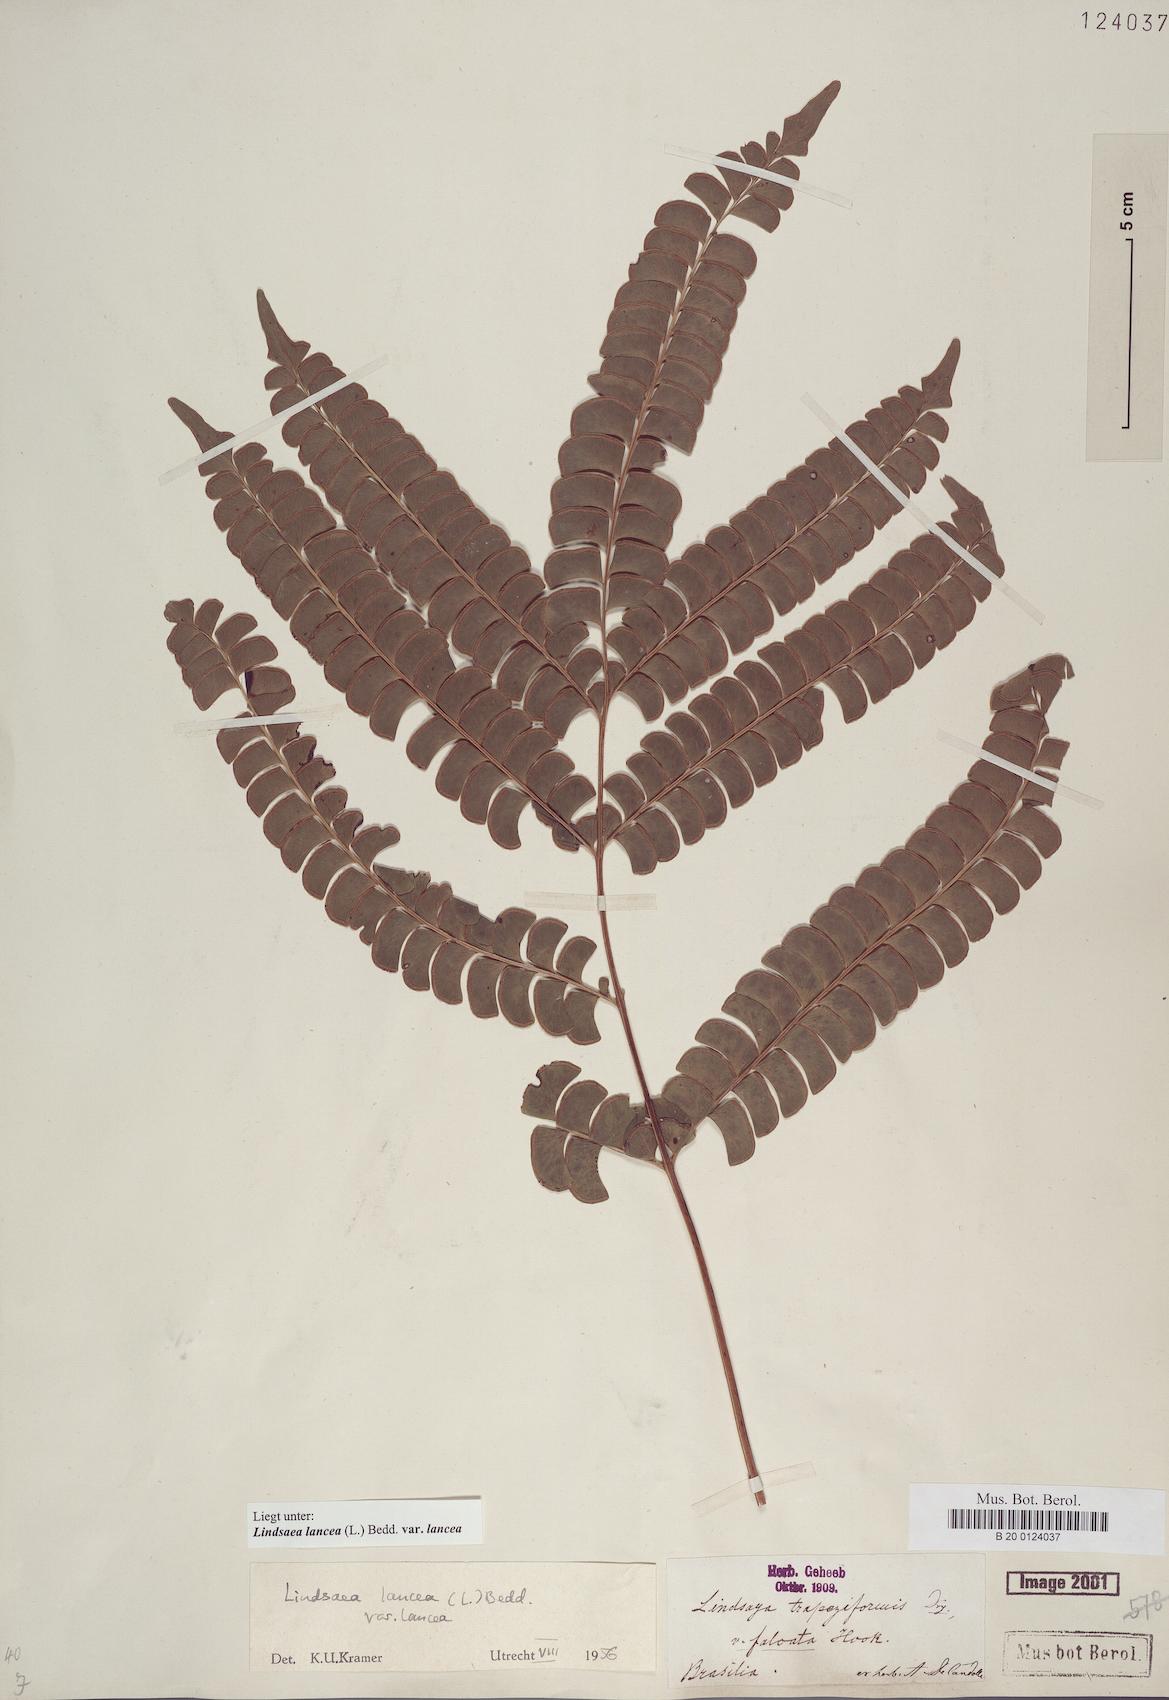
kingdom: Plantae
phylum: Tracheophyta
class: Polypodiopsida
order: Polypodiales
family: Lindsaeaceae
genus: Lindsaea
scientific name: Lindsaea lancea
